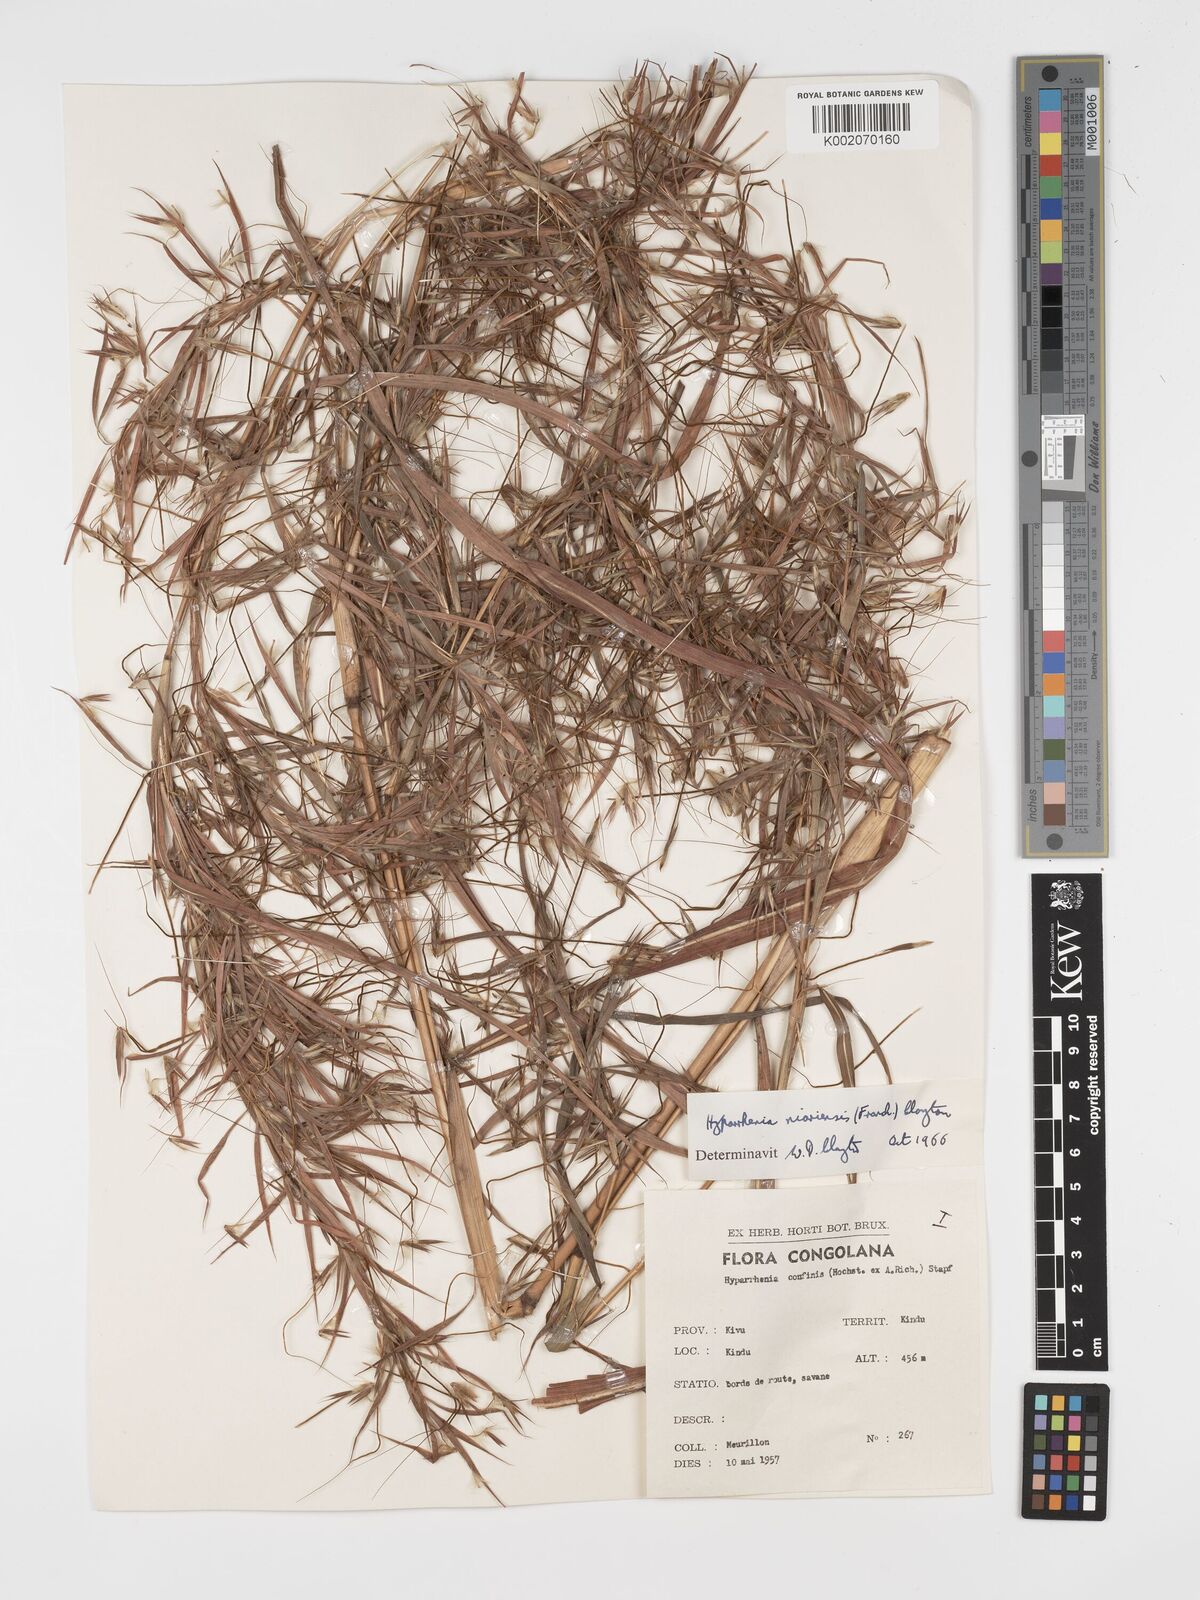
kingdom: Plantae
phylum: Tracheophyta
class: Liliopsida
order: Poales
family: Poaceae
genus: Hyparrhenia
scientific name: Hyparrhenia niariensis
